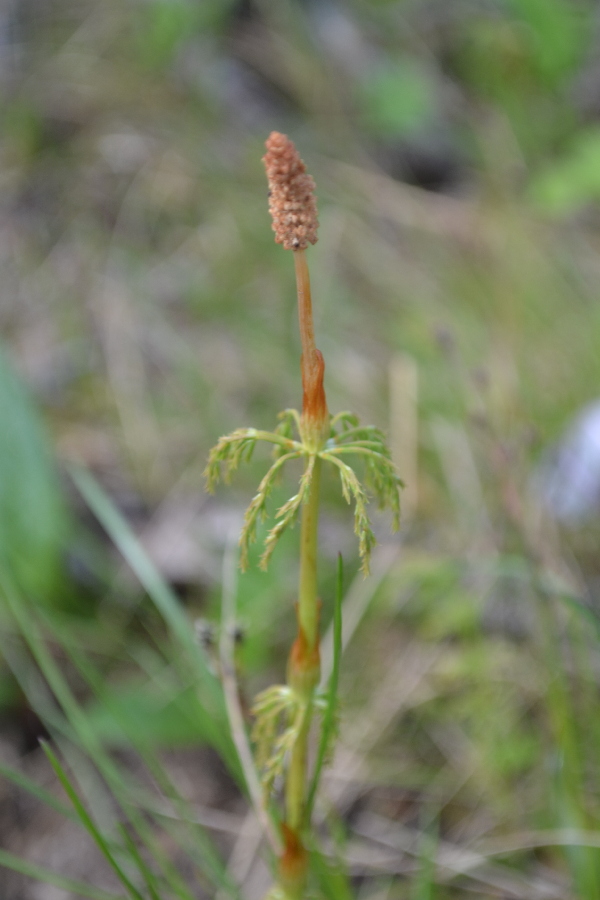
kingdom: Plantae
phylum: Tracheophyta
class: Polypodiopsida
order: Equisetales
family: Equisetaceae
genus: Equisetum
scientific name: Equisetum sylvaticum
